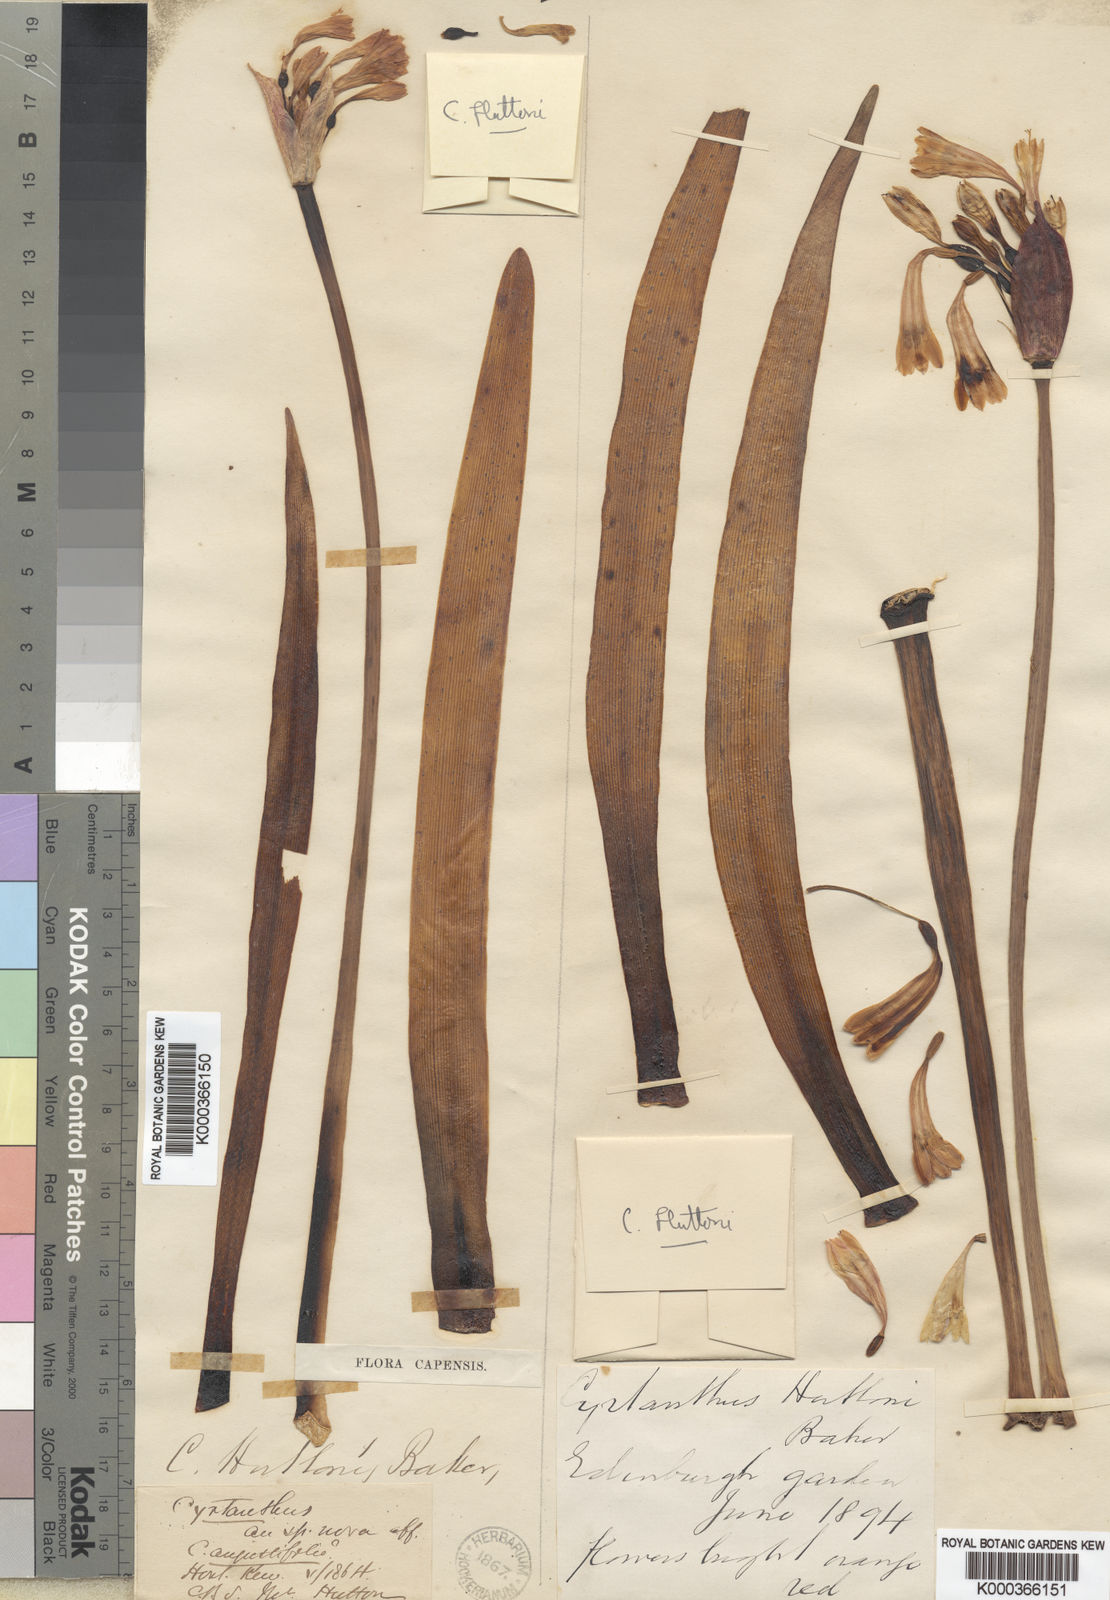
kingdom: Plantae
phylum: Tracheophyta
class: Liliopsida
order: Asparagales
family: Amaryllidaceae
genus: Cyrtanthus
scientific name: Cyrtanthus huttonii
